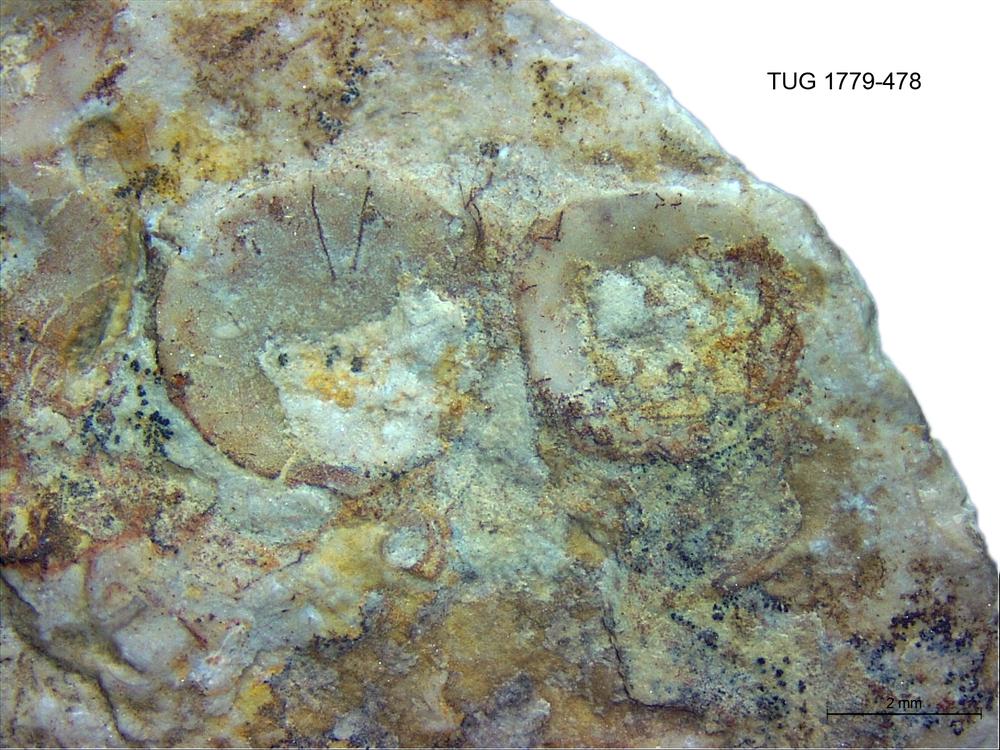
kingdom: Animalia
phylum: Brachiopoda
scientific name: Brachiopoda
